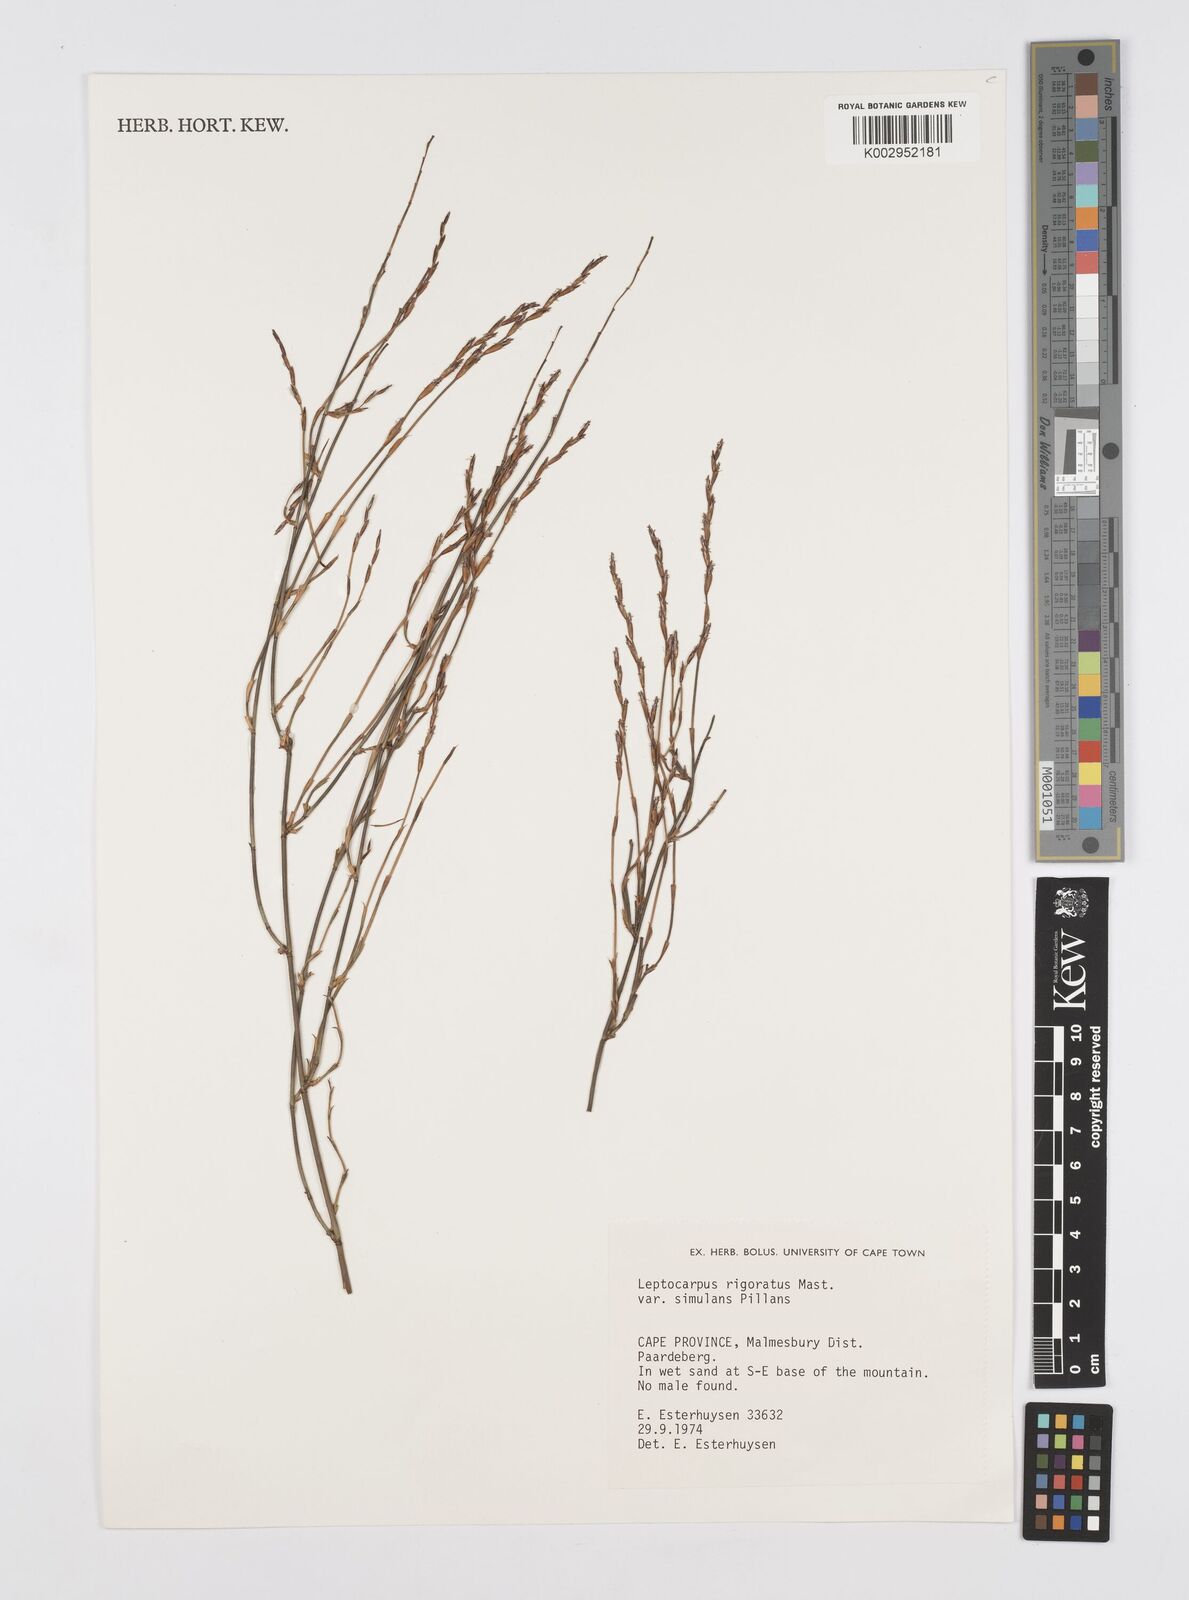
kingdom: Plantae
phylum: Tracheophyta
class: Liliopsida
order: Poales
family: Restionaceae
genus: Restio
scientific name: Restio rigoratus
